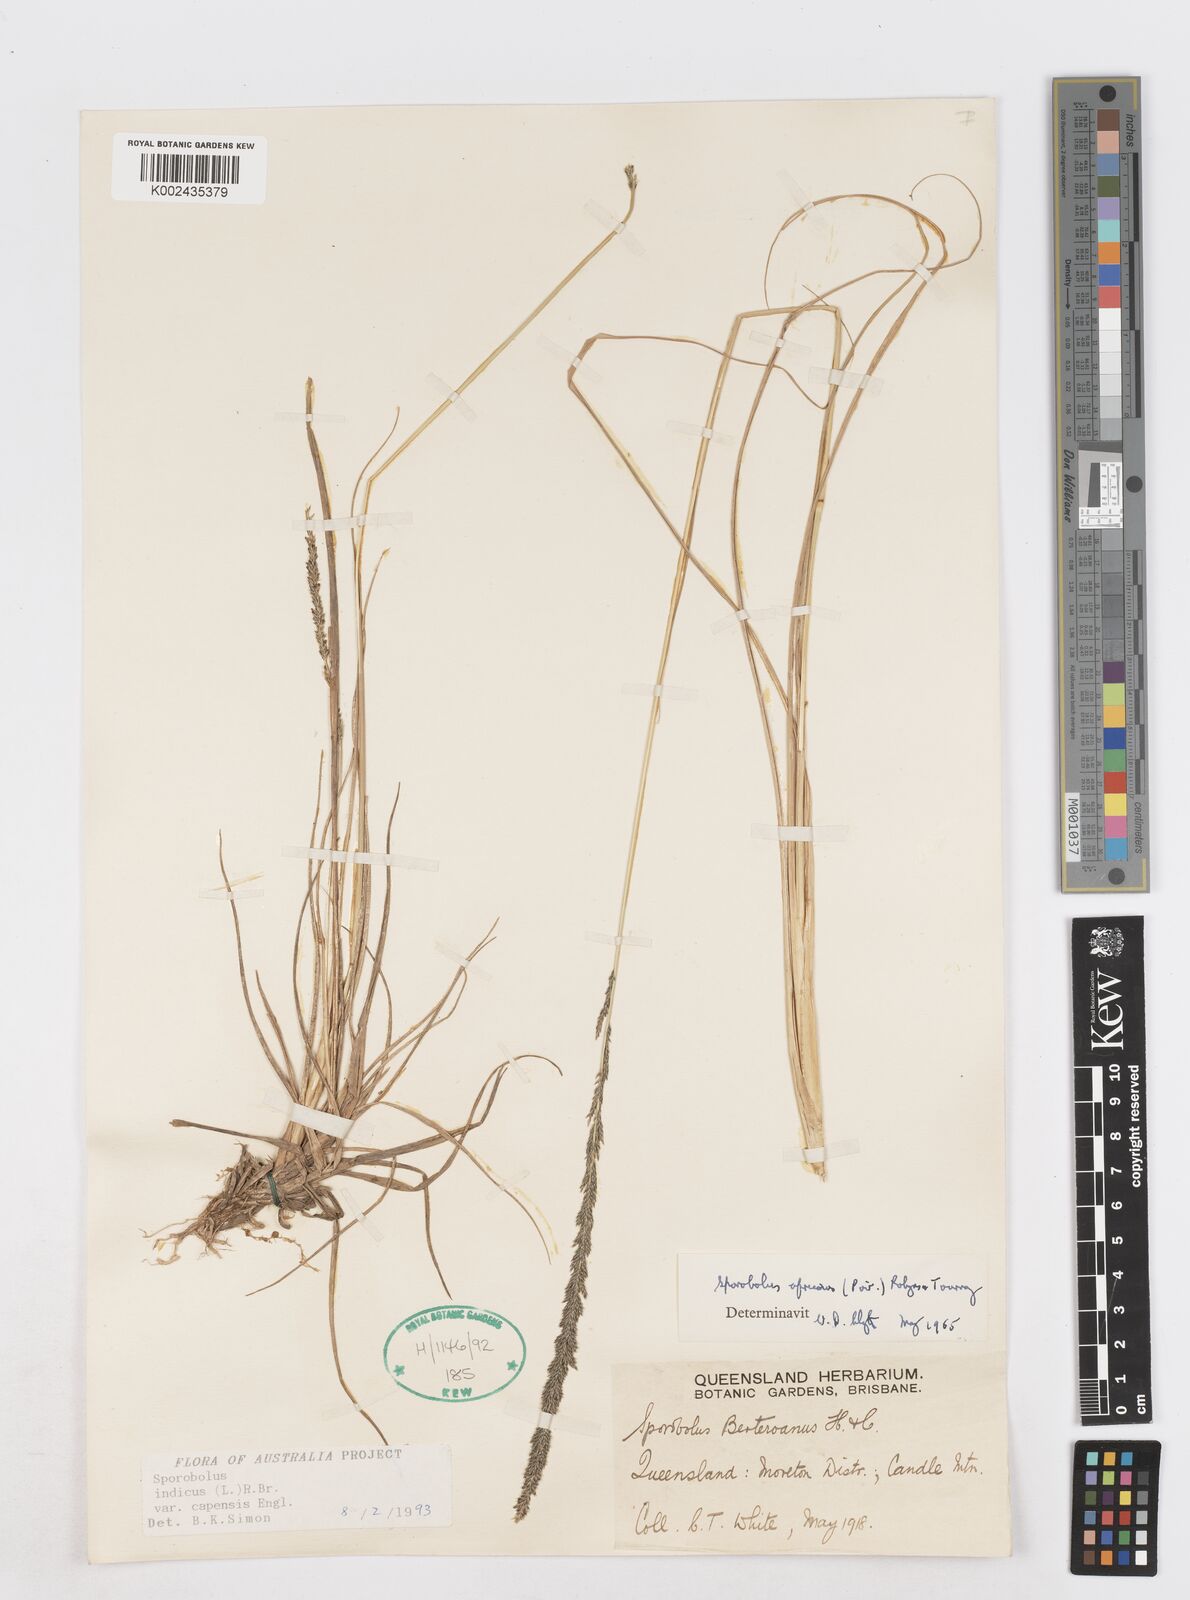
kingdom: Plantae
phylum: Tracheophyta
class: Liliopsida
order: Poales
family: Poaceae
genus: Sporobolus
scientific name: Sporobolus africanus
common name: African dropseed
